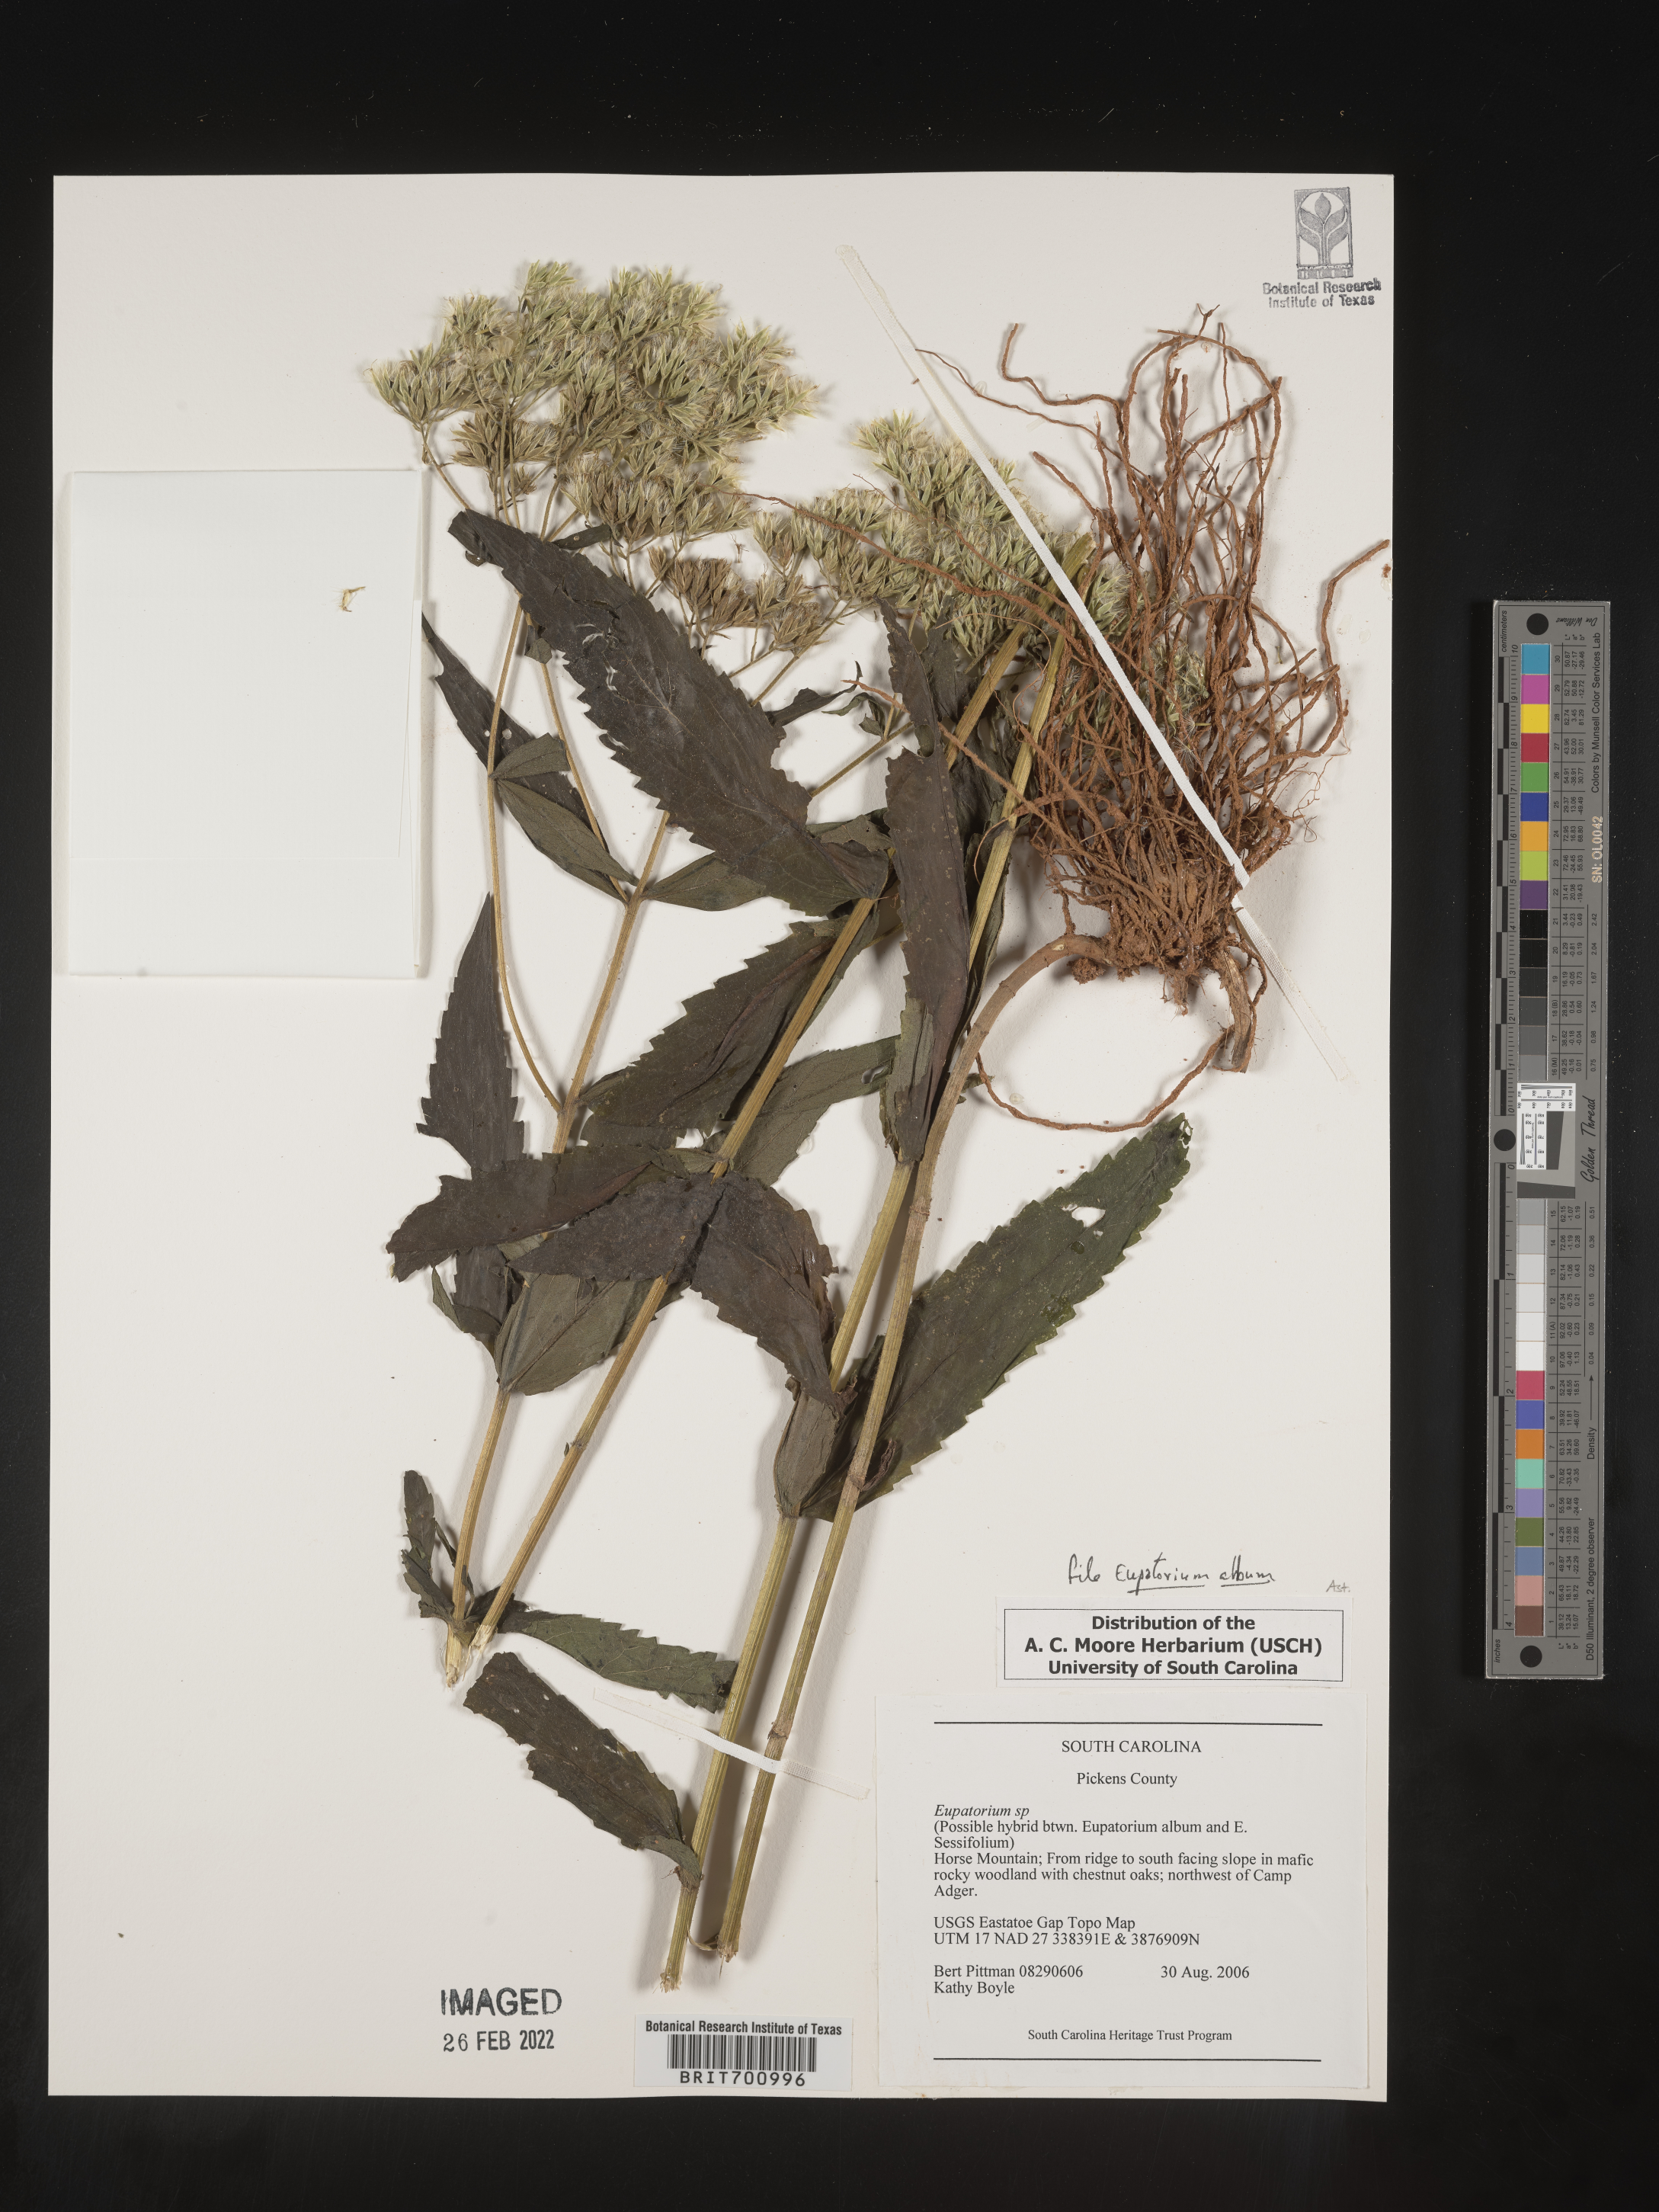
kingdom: Plantae
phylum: Tracheophyta
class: Magnoliopsida
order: Asterales
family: Asteraceae
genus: Eupatorium
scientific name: Eupatorium album
